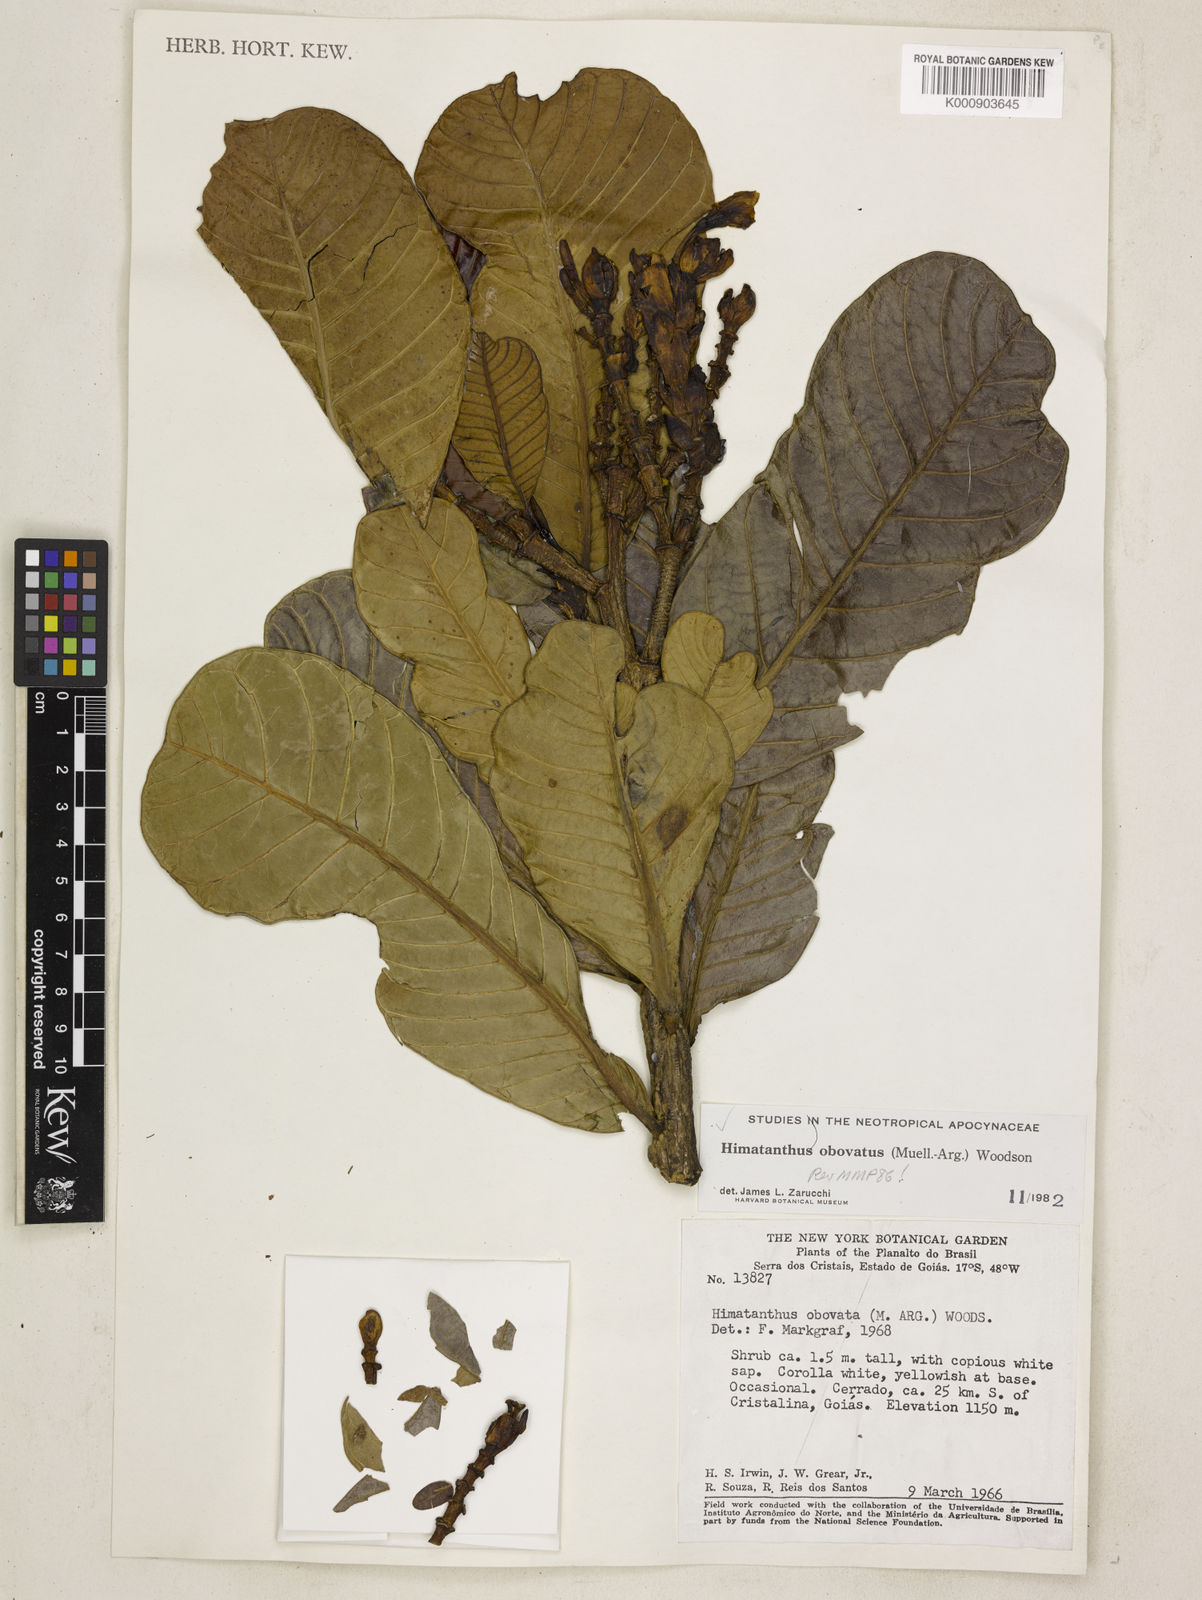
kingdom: Plantae
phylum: Tracheophyta
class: Magnoliopsida
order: Gentianales
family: Apocynaceae
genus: Himatanthus
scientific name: Himatanthus
